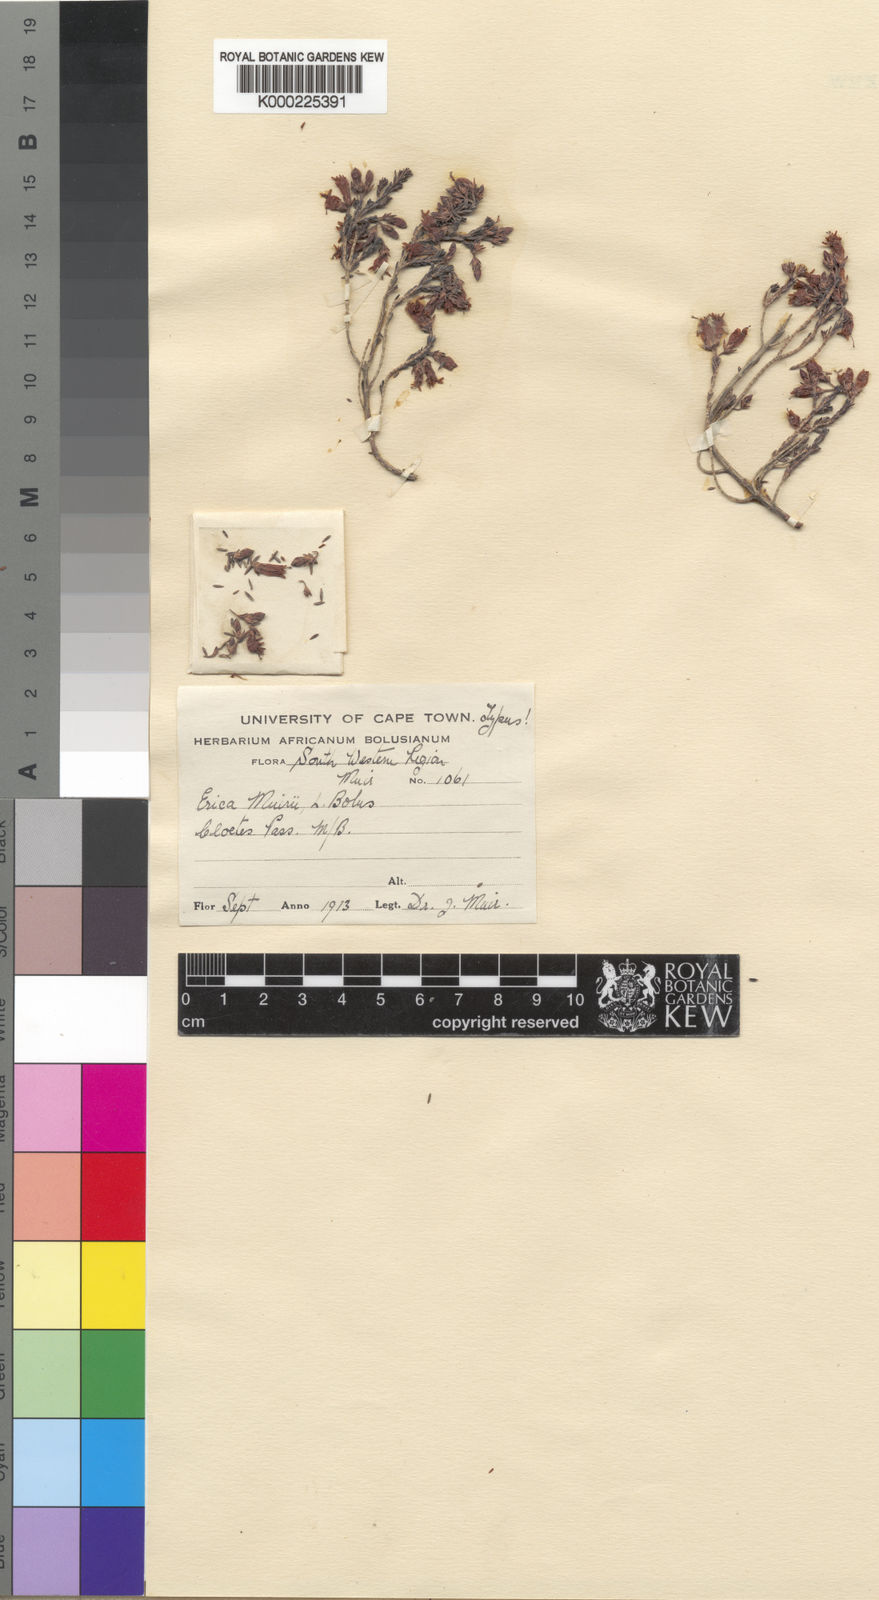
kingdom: Plantae
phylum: Tracheophyta
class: Magnoliopsida
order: Ericales
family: Ericaceae
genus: Erica
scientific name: Erica recta
